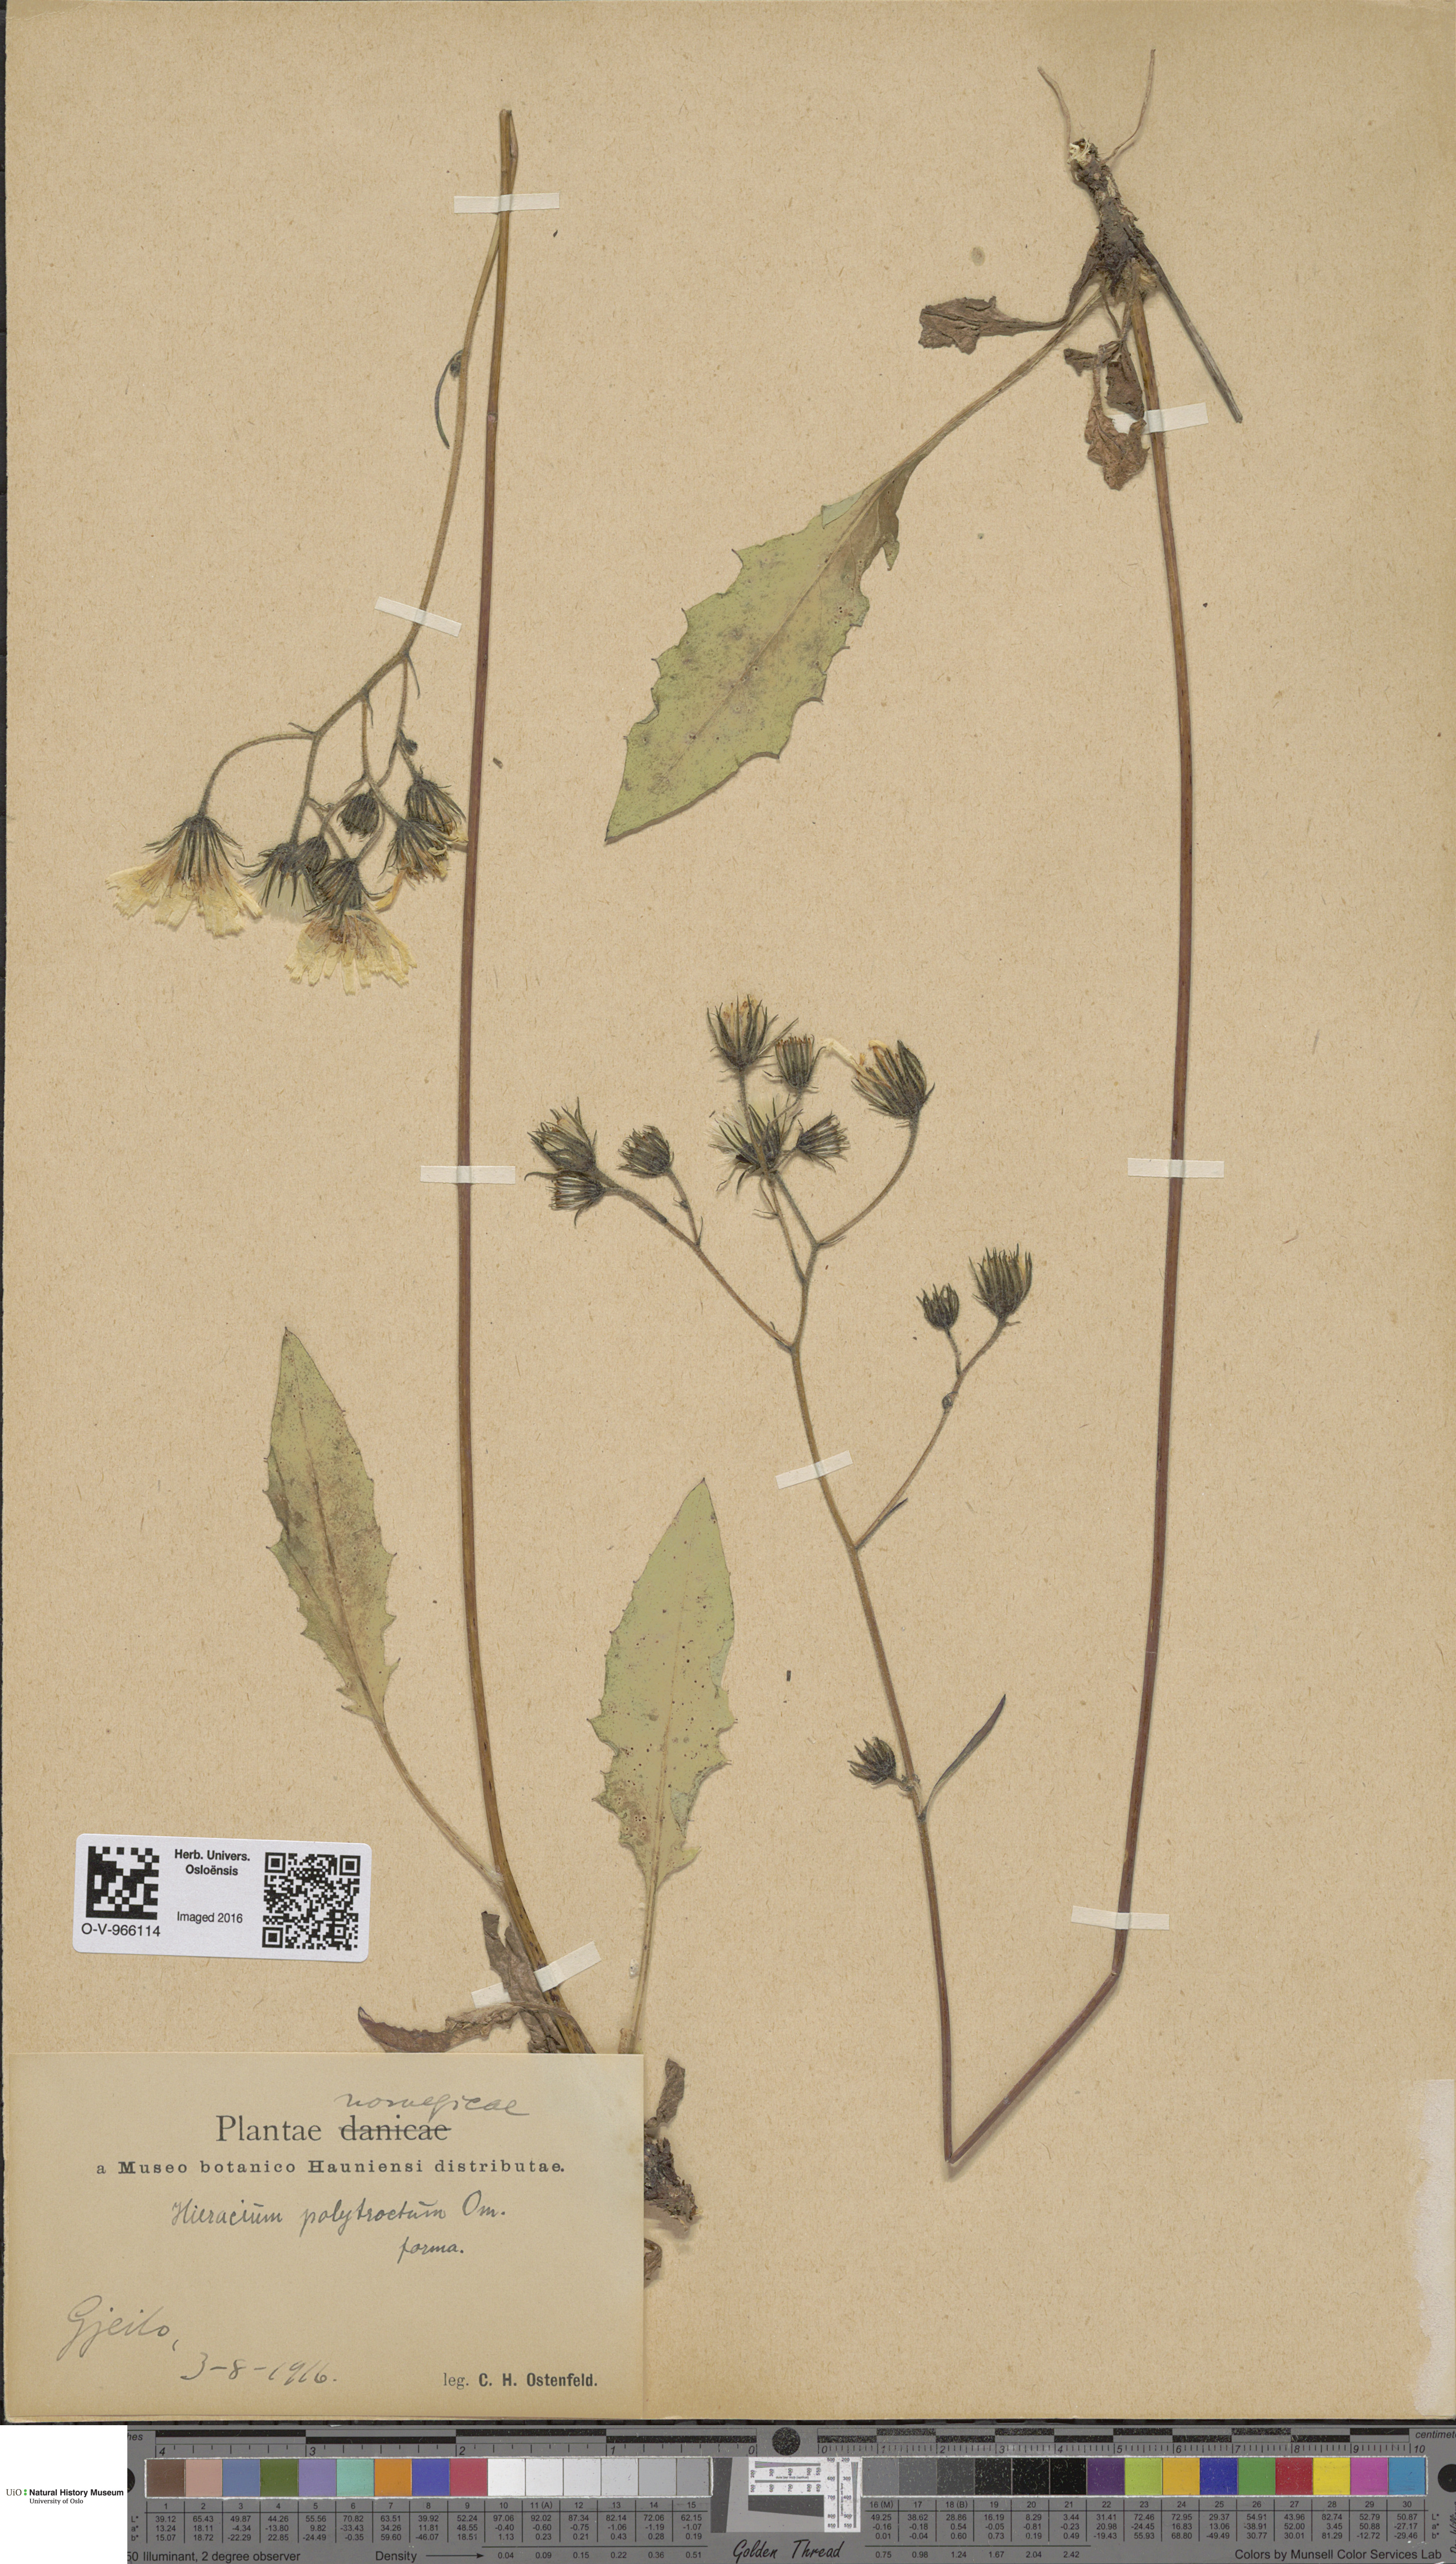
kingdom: Plantae
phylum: Tracheophyta
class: Magnoliopsida
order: Asterales
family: Asteraceae
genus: Hieracium
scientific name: Hieracium
